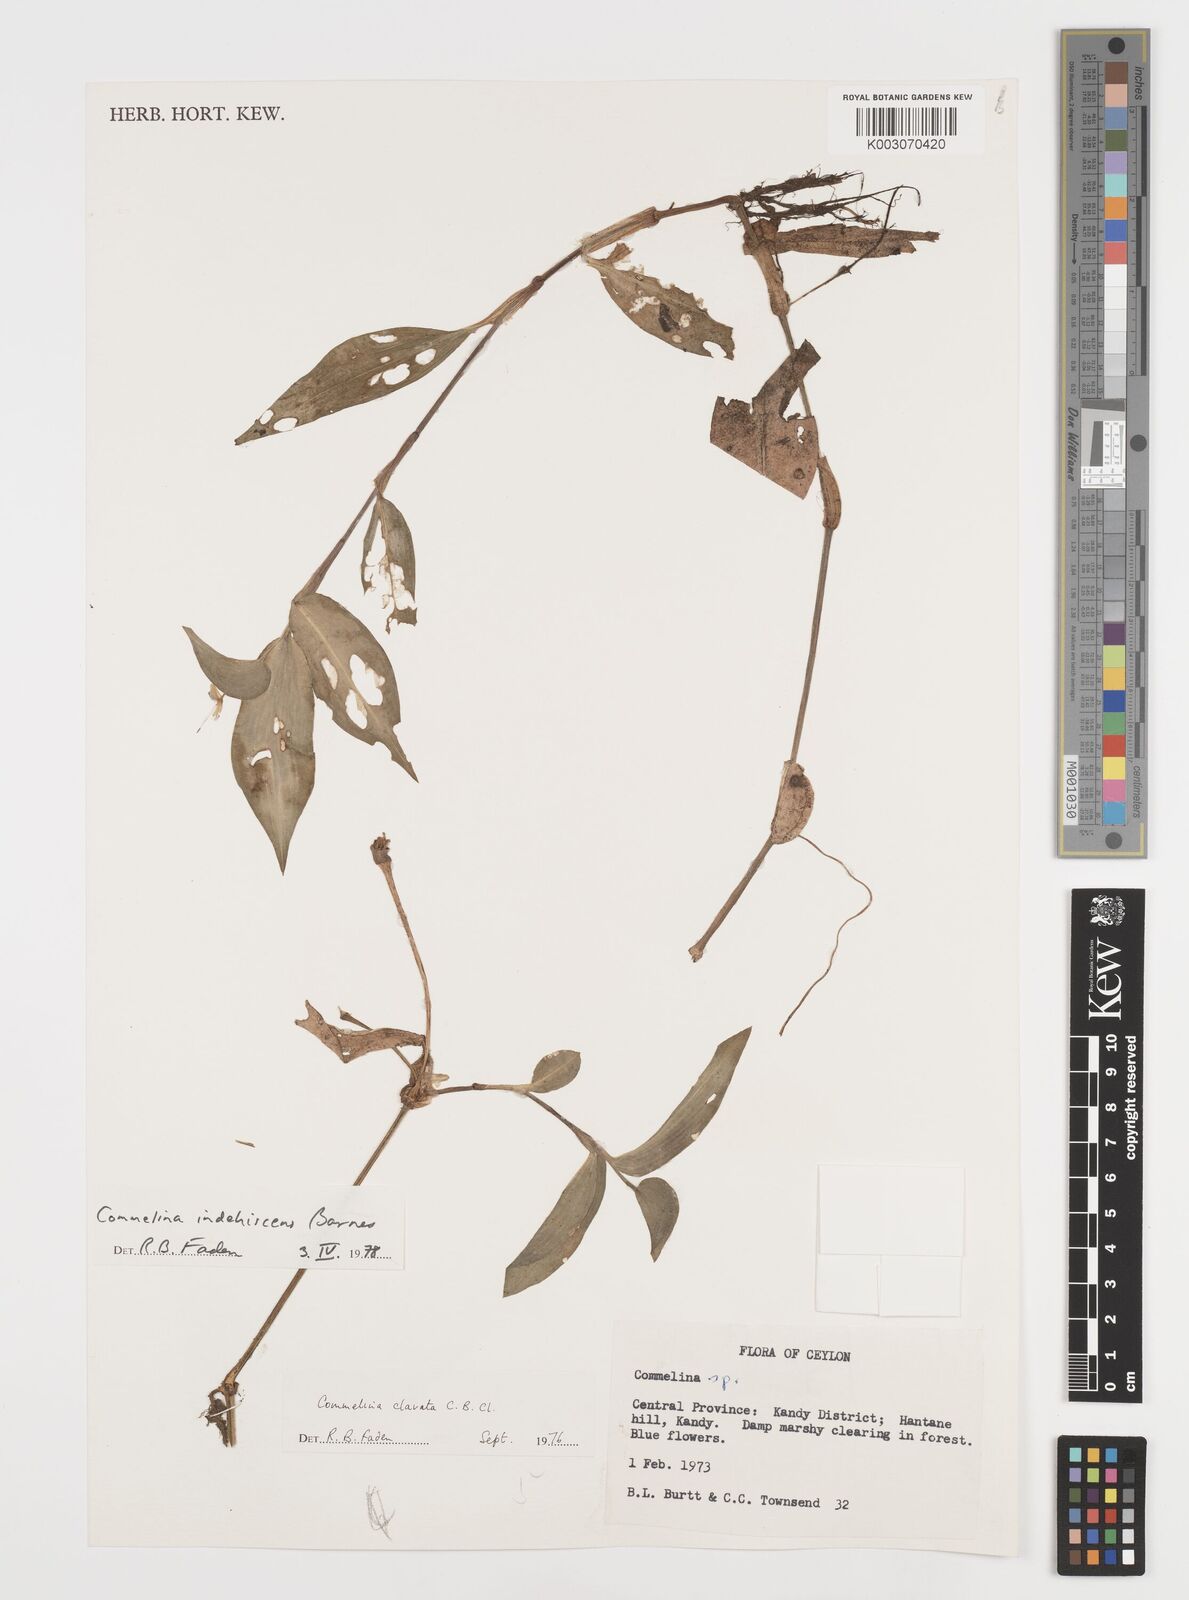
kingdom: Plantae
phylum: Tracheophyta
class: Liliopsida
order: Commelinales
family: Commelinaceae
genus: Commelina
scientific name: Commelina indehiscens
